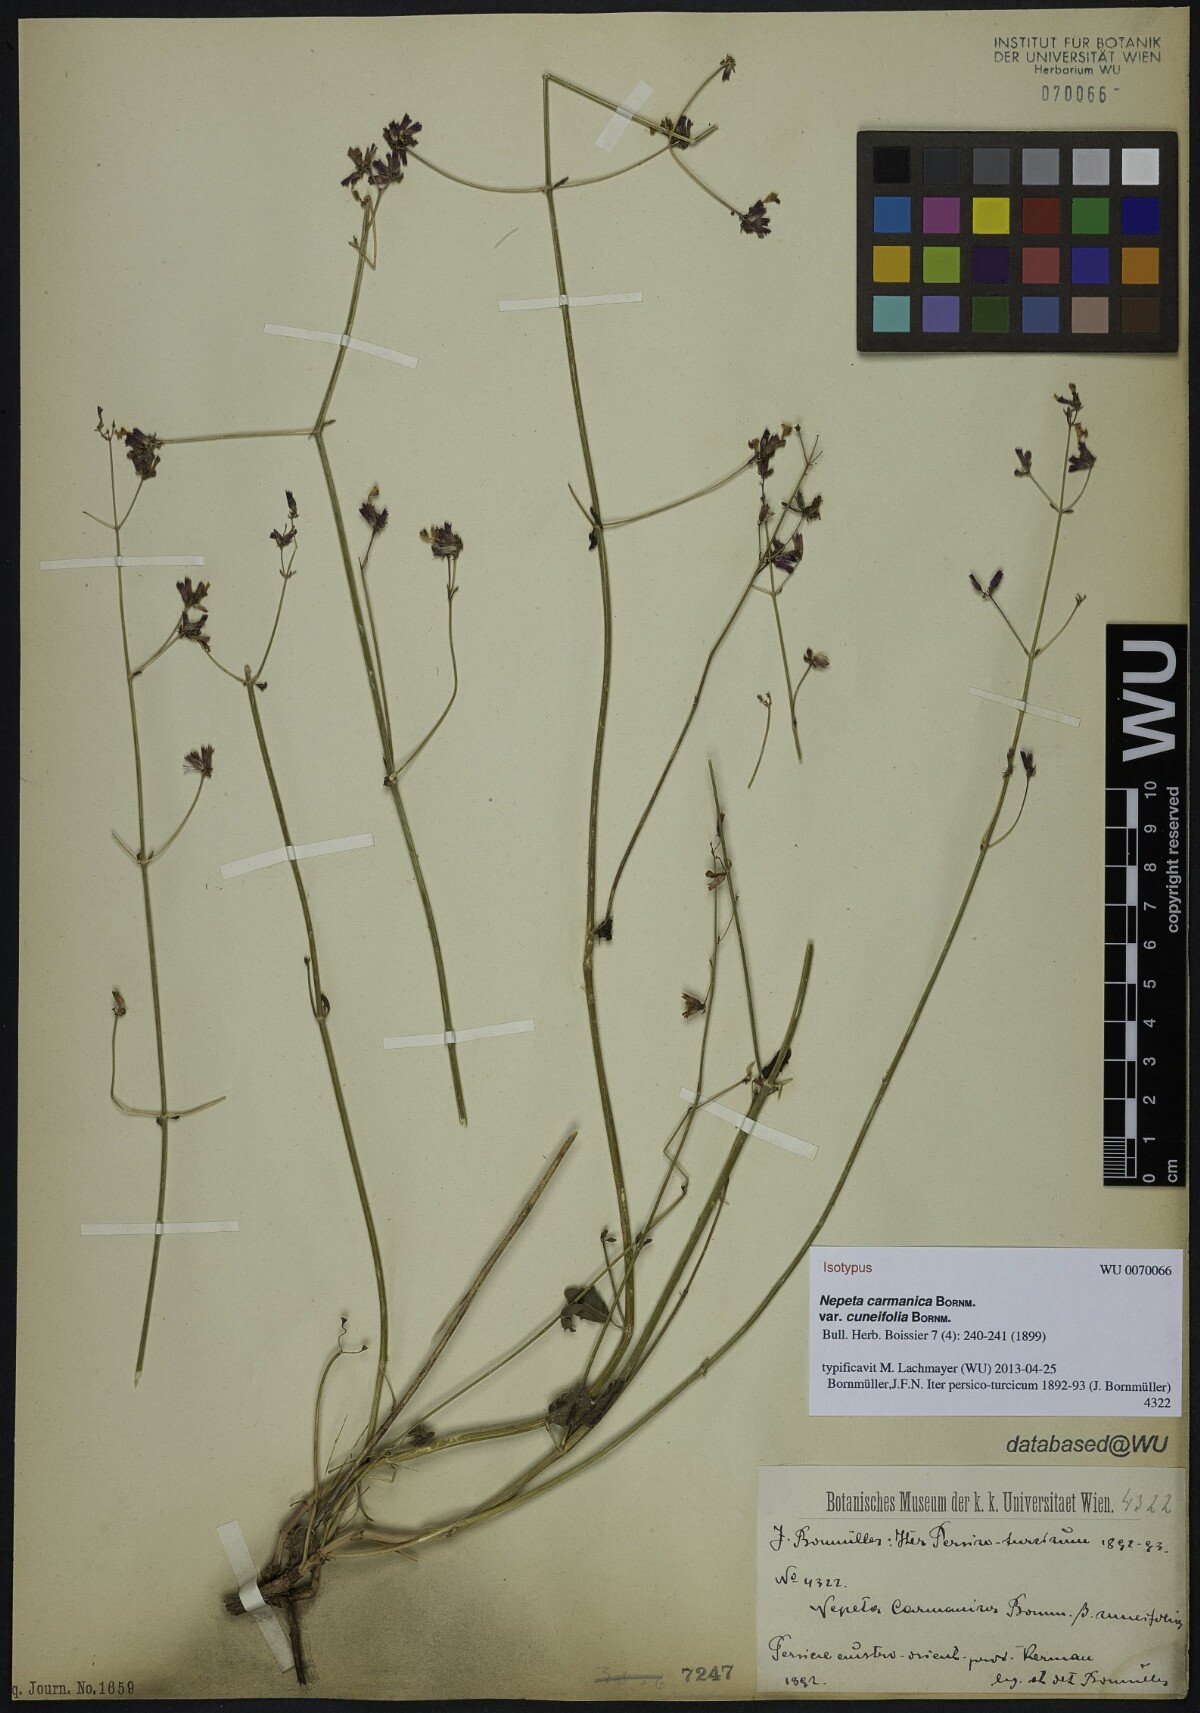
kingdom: Plantae
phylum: Tracheophyta
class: Magnoliopsida
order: Lamiales
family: Lamiaceae
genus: Nepeta
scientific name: Nepeta teucriifolia
